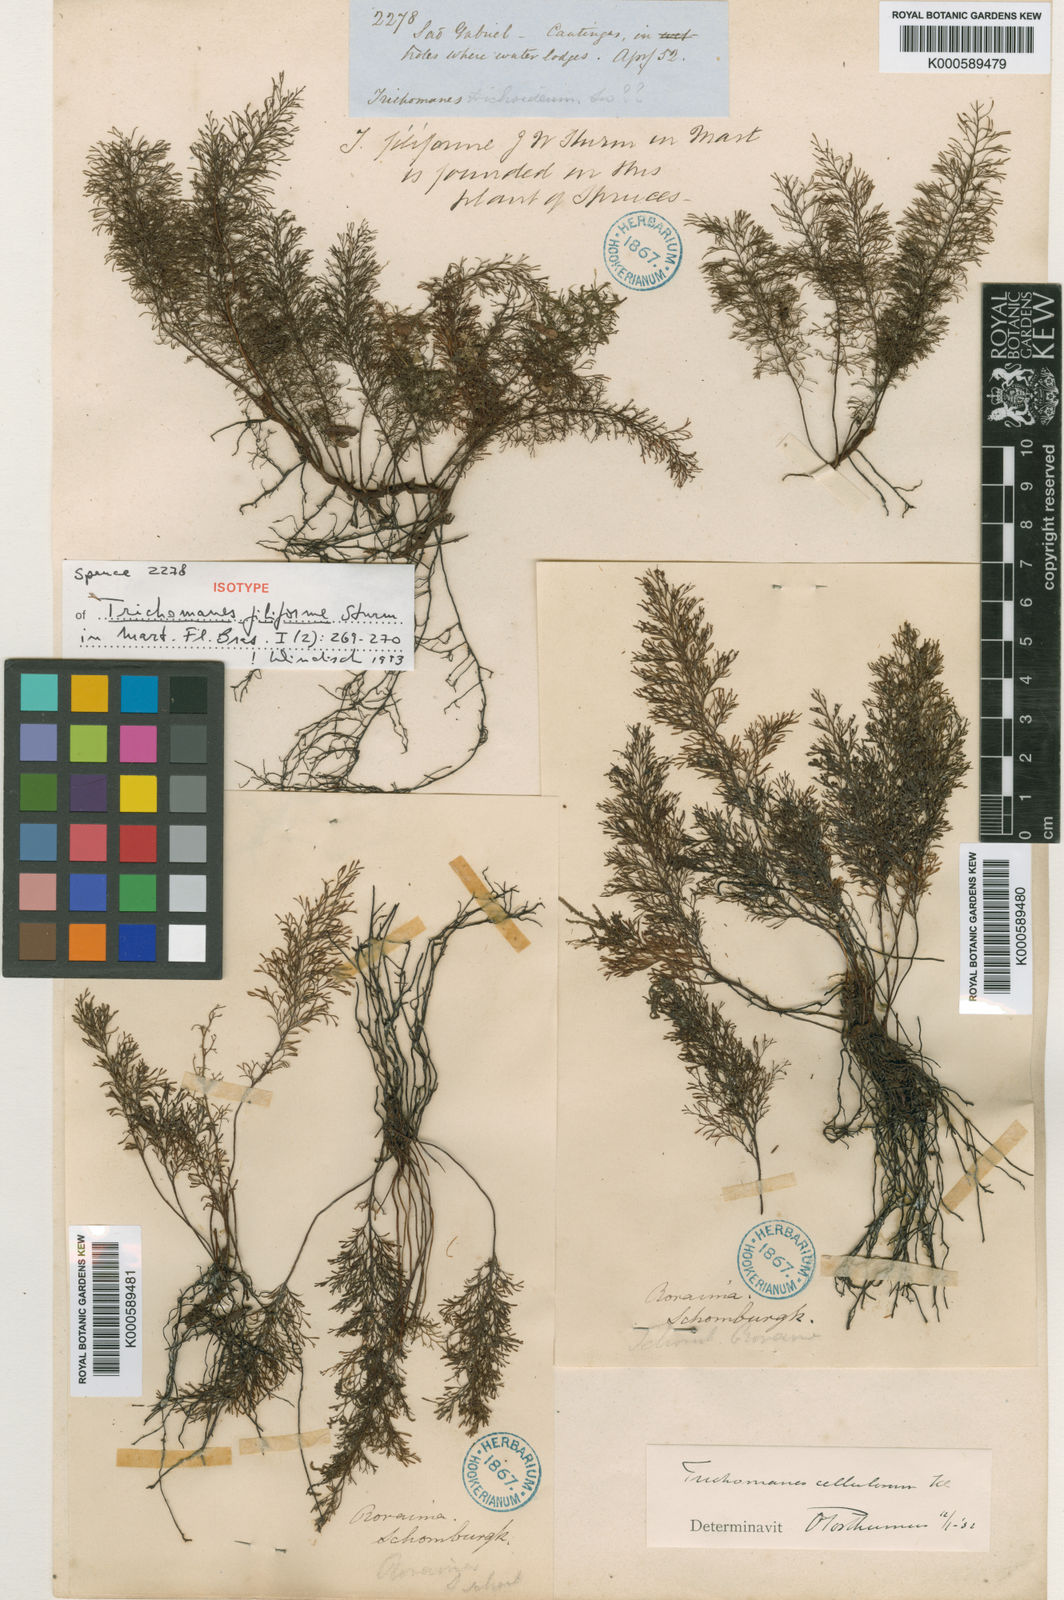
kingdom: Plantae
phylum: Tracheophyta
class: Polypodiopsida
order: Hymenophyllales
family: Hymenophyllaceae
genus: Abrodictyum
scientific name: Abrodictyum cellulosum
